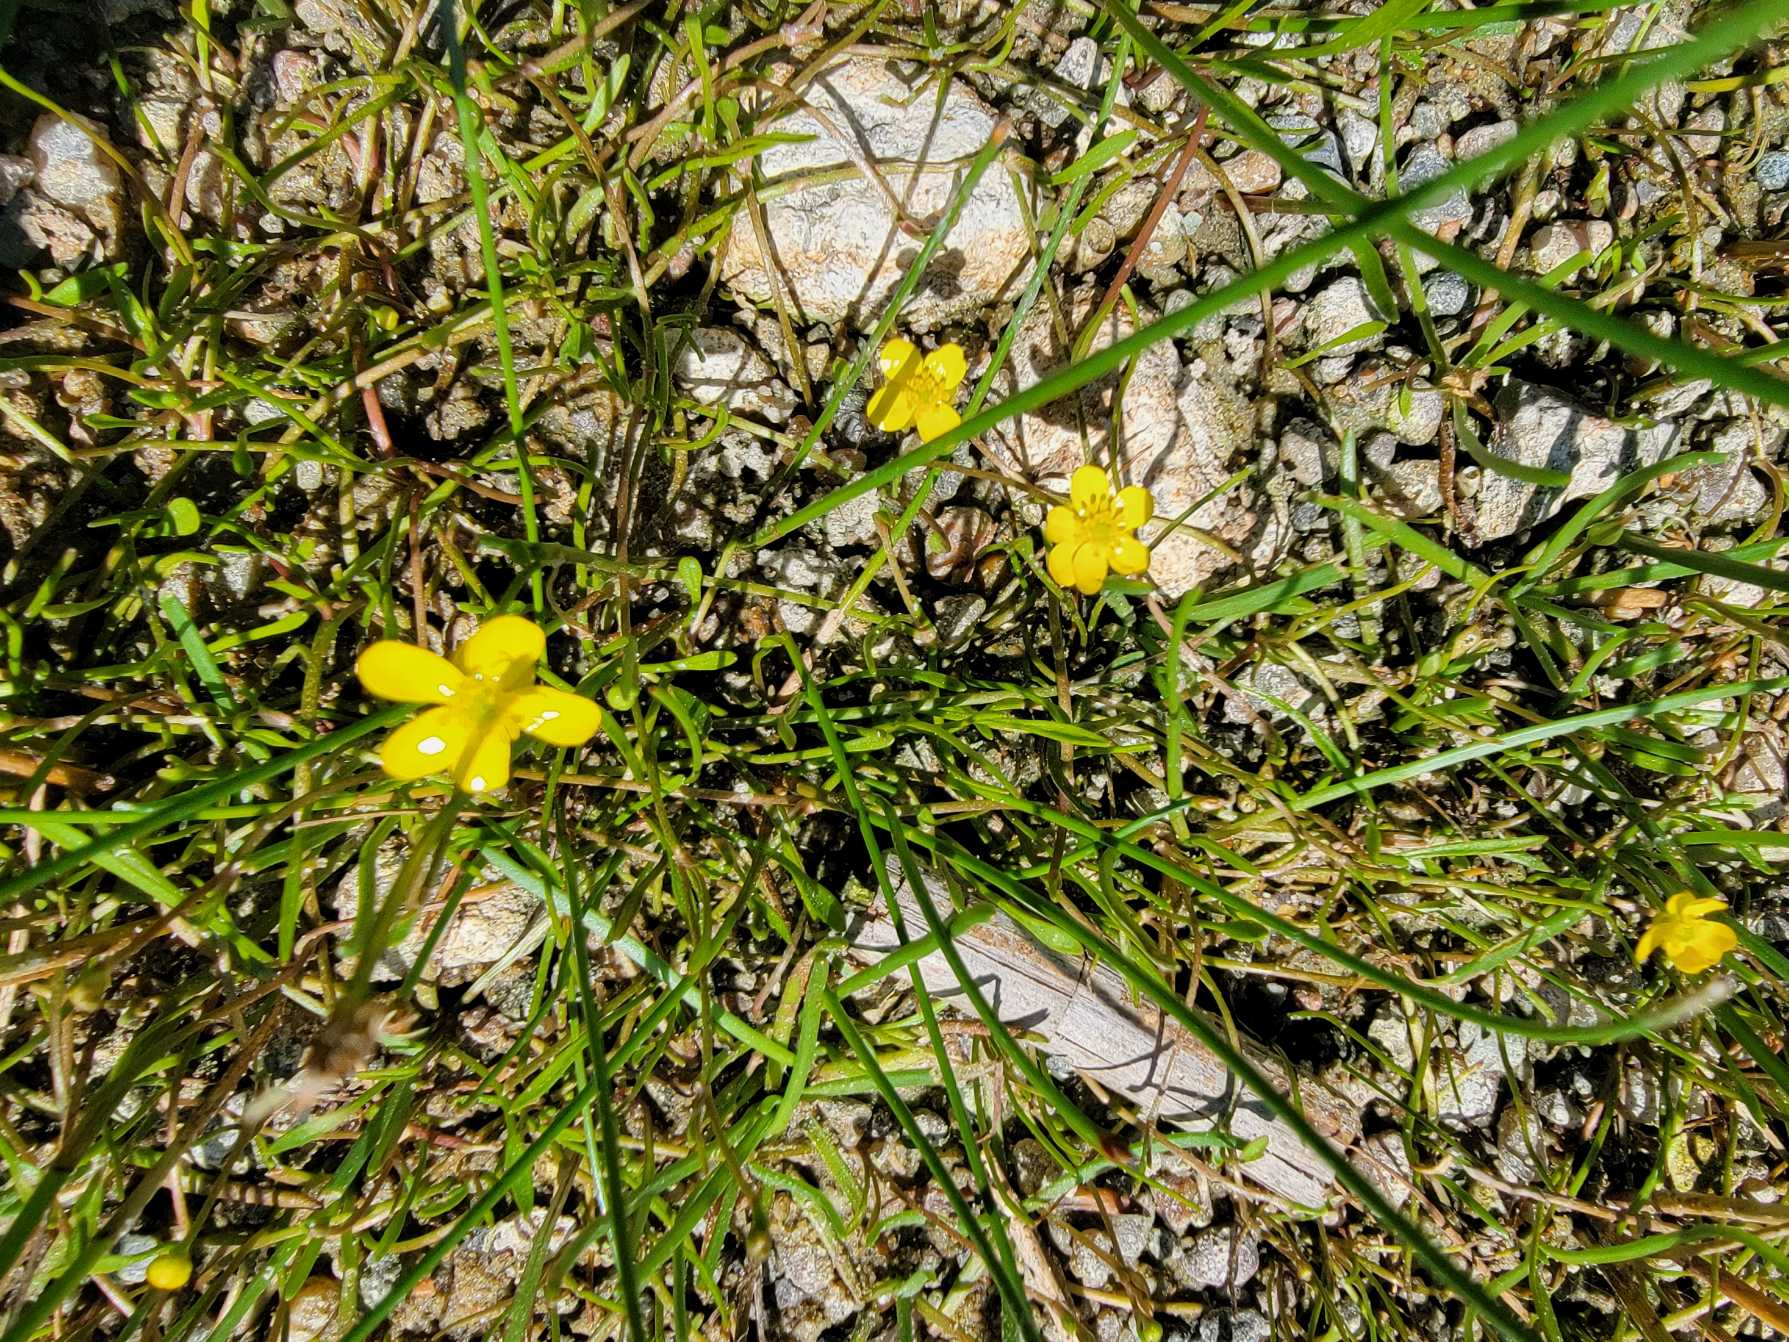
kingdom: Plantae
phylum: Tracheophyta
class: Magnoliopsida
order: Ranunculales
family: Ranunculaceae
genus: Ranunculus
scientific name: Ranunculus reptans
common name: Krybende ranunkel
